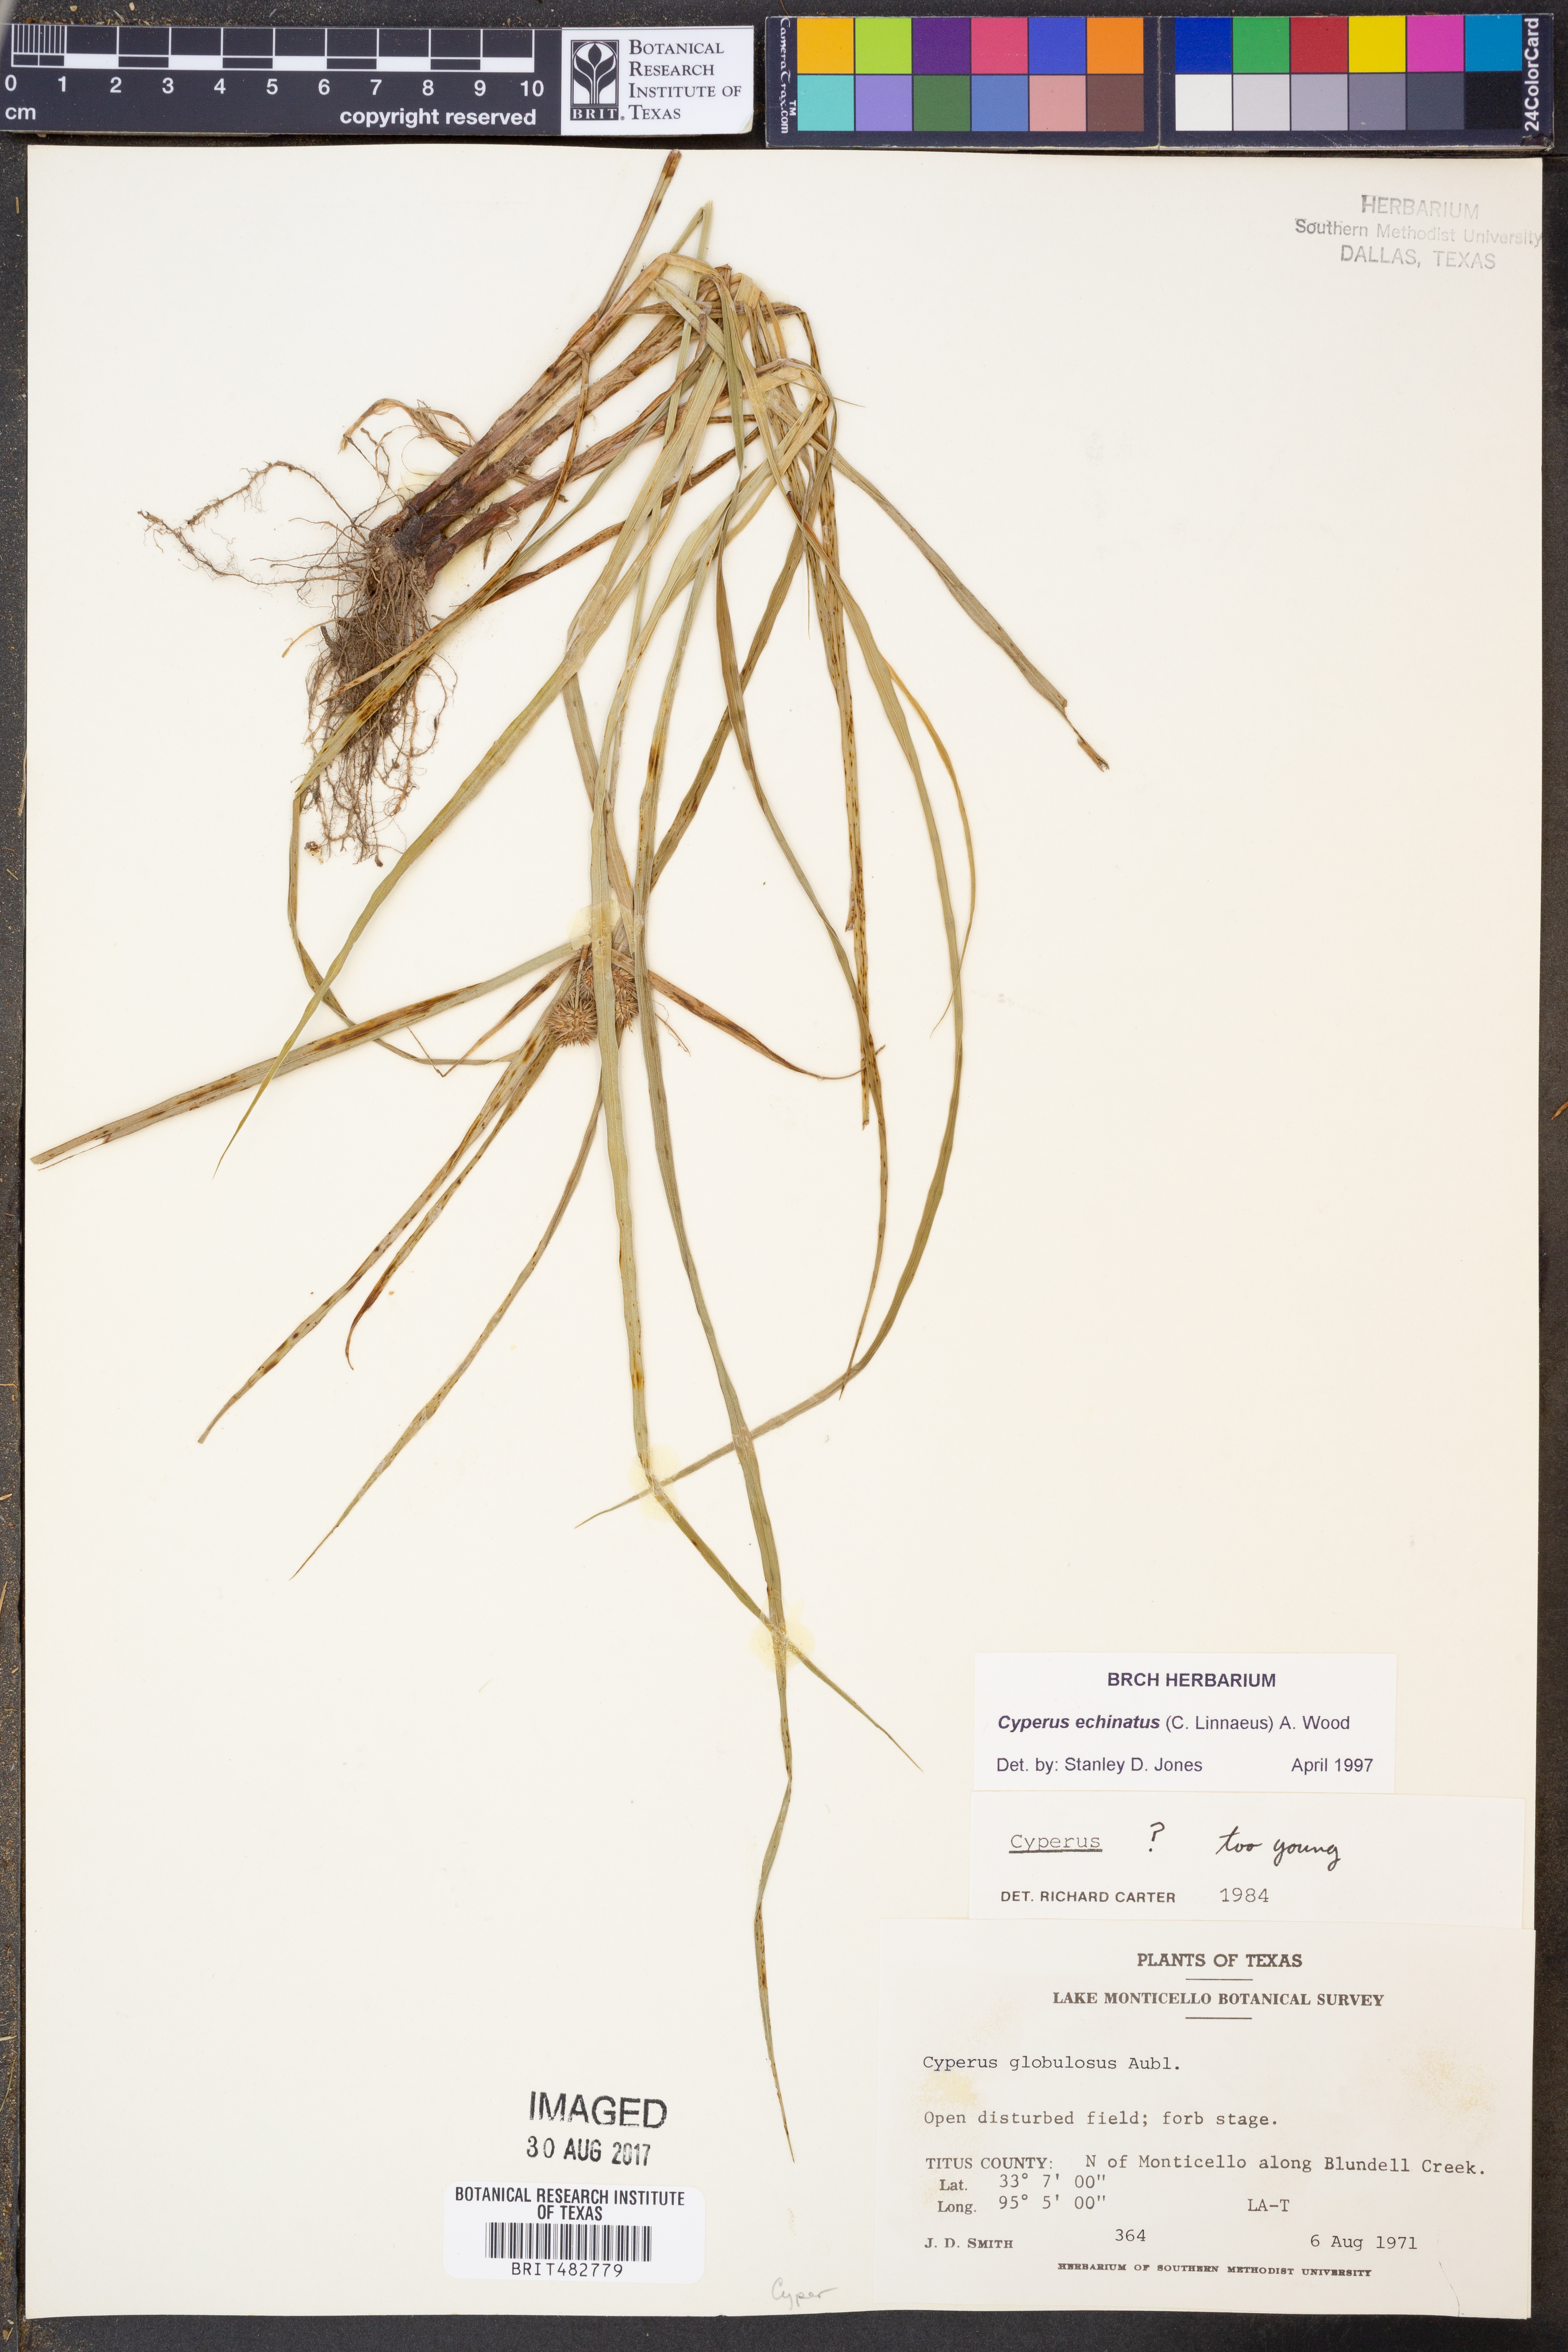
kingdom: Plantae
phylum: Tracheophyta
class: Liliopsida
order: Poales
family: Cyperaceae
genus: Cyperus
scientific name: Cyperus echinatus
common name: Teasel sedge
